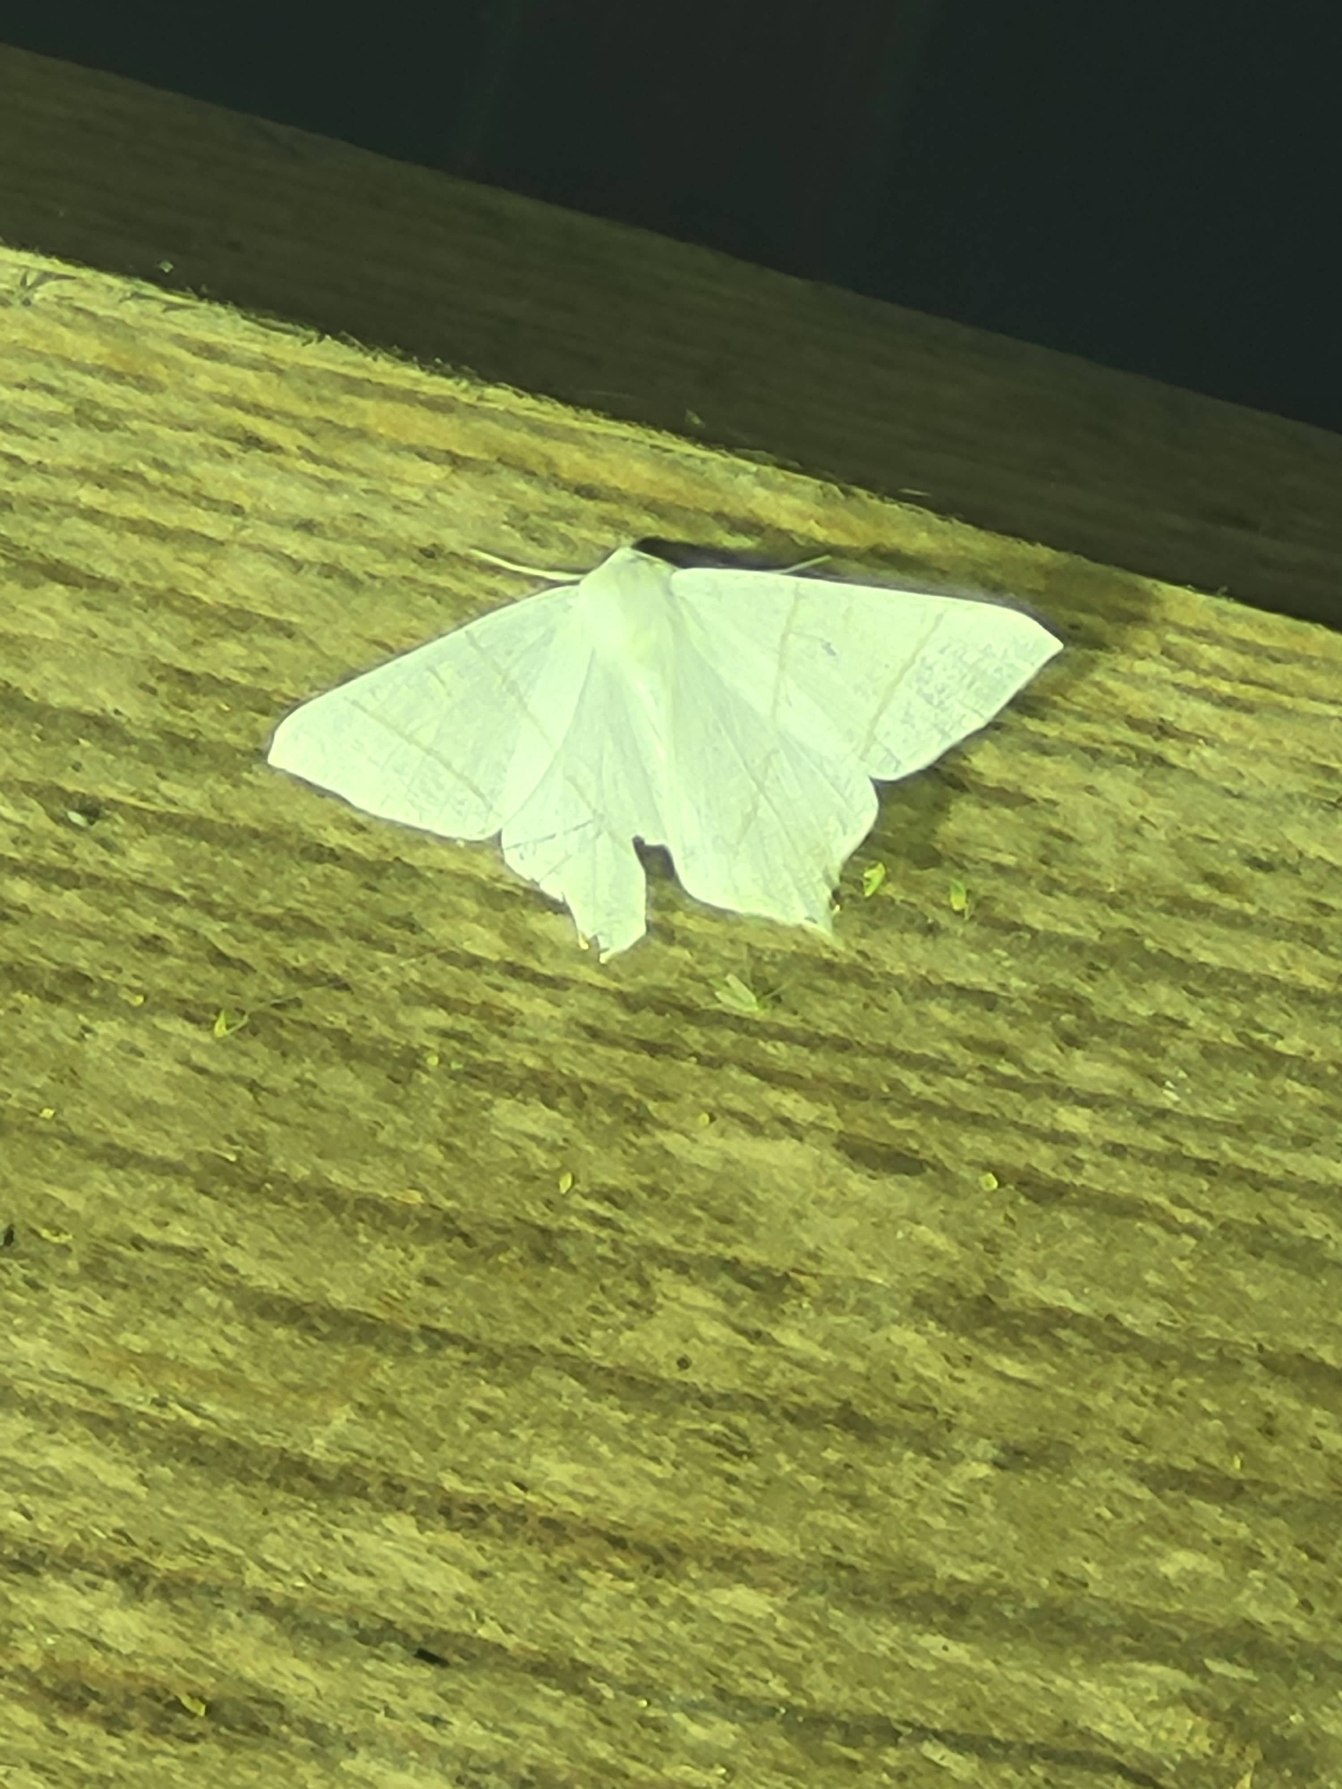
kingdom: Animalia
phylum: Arthropoda
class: Insecta
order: Lepidoptera
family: Geometridae
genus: Ourapteryx
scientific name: Ourapteryx sambucaria
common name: Natsvalehale
